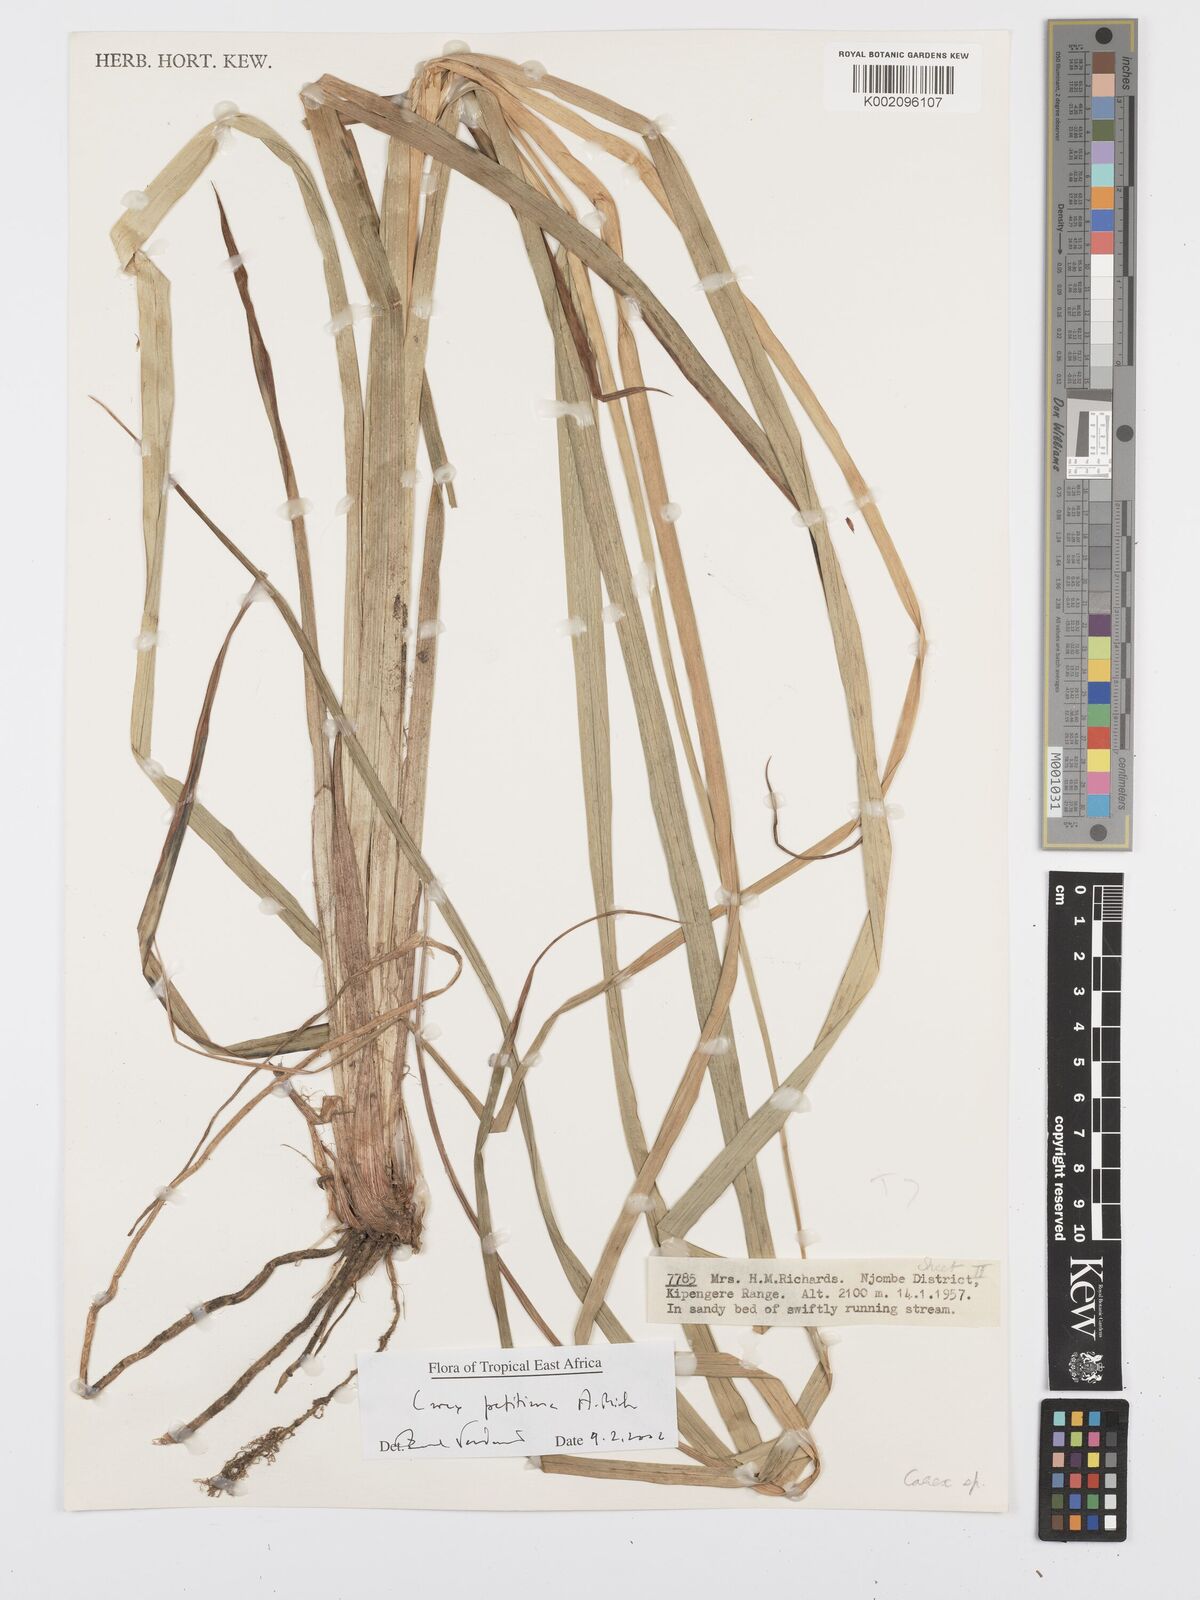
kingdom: Plantae
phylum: Tracheophyta
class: Liliopsida
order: Poales
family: Cyperaceae
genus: Carex
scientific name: Carex petitiana
